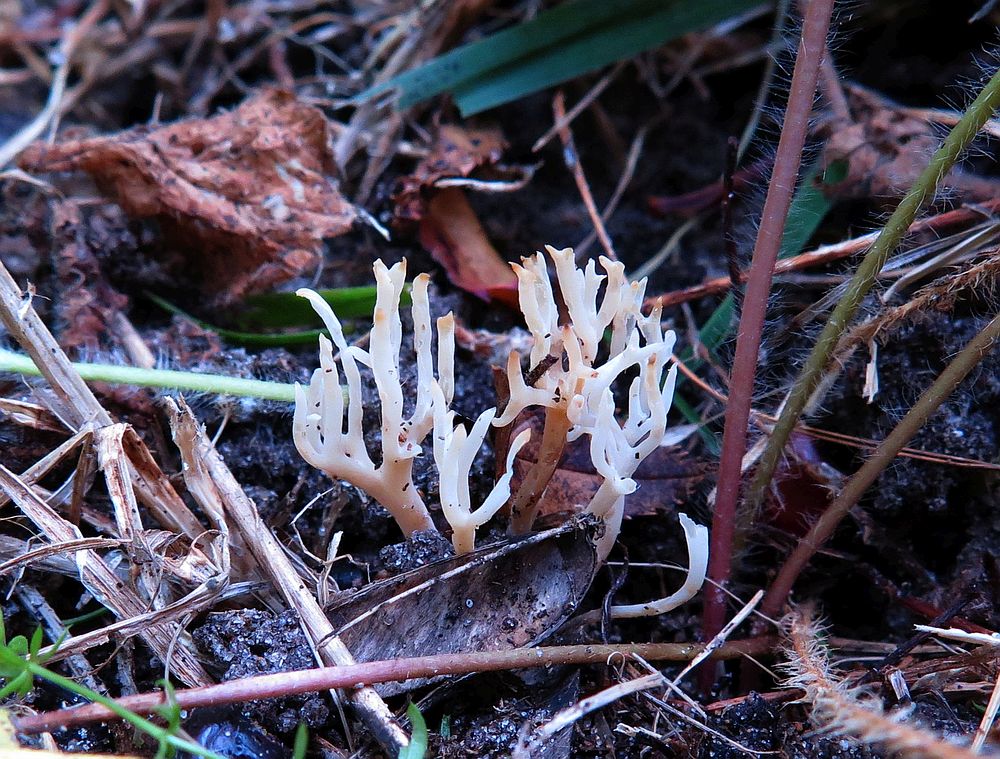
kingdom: Fungi
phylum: Basidiomycota
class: Agaricomycetes
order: Agaricales
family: Clavariaceae
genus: Ramariopsis
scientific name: Ramariopsis hirtipes
